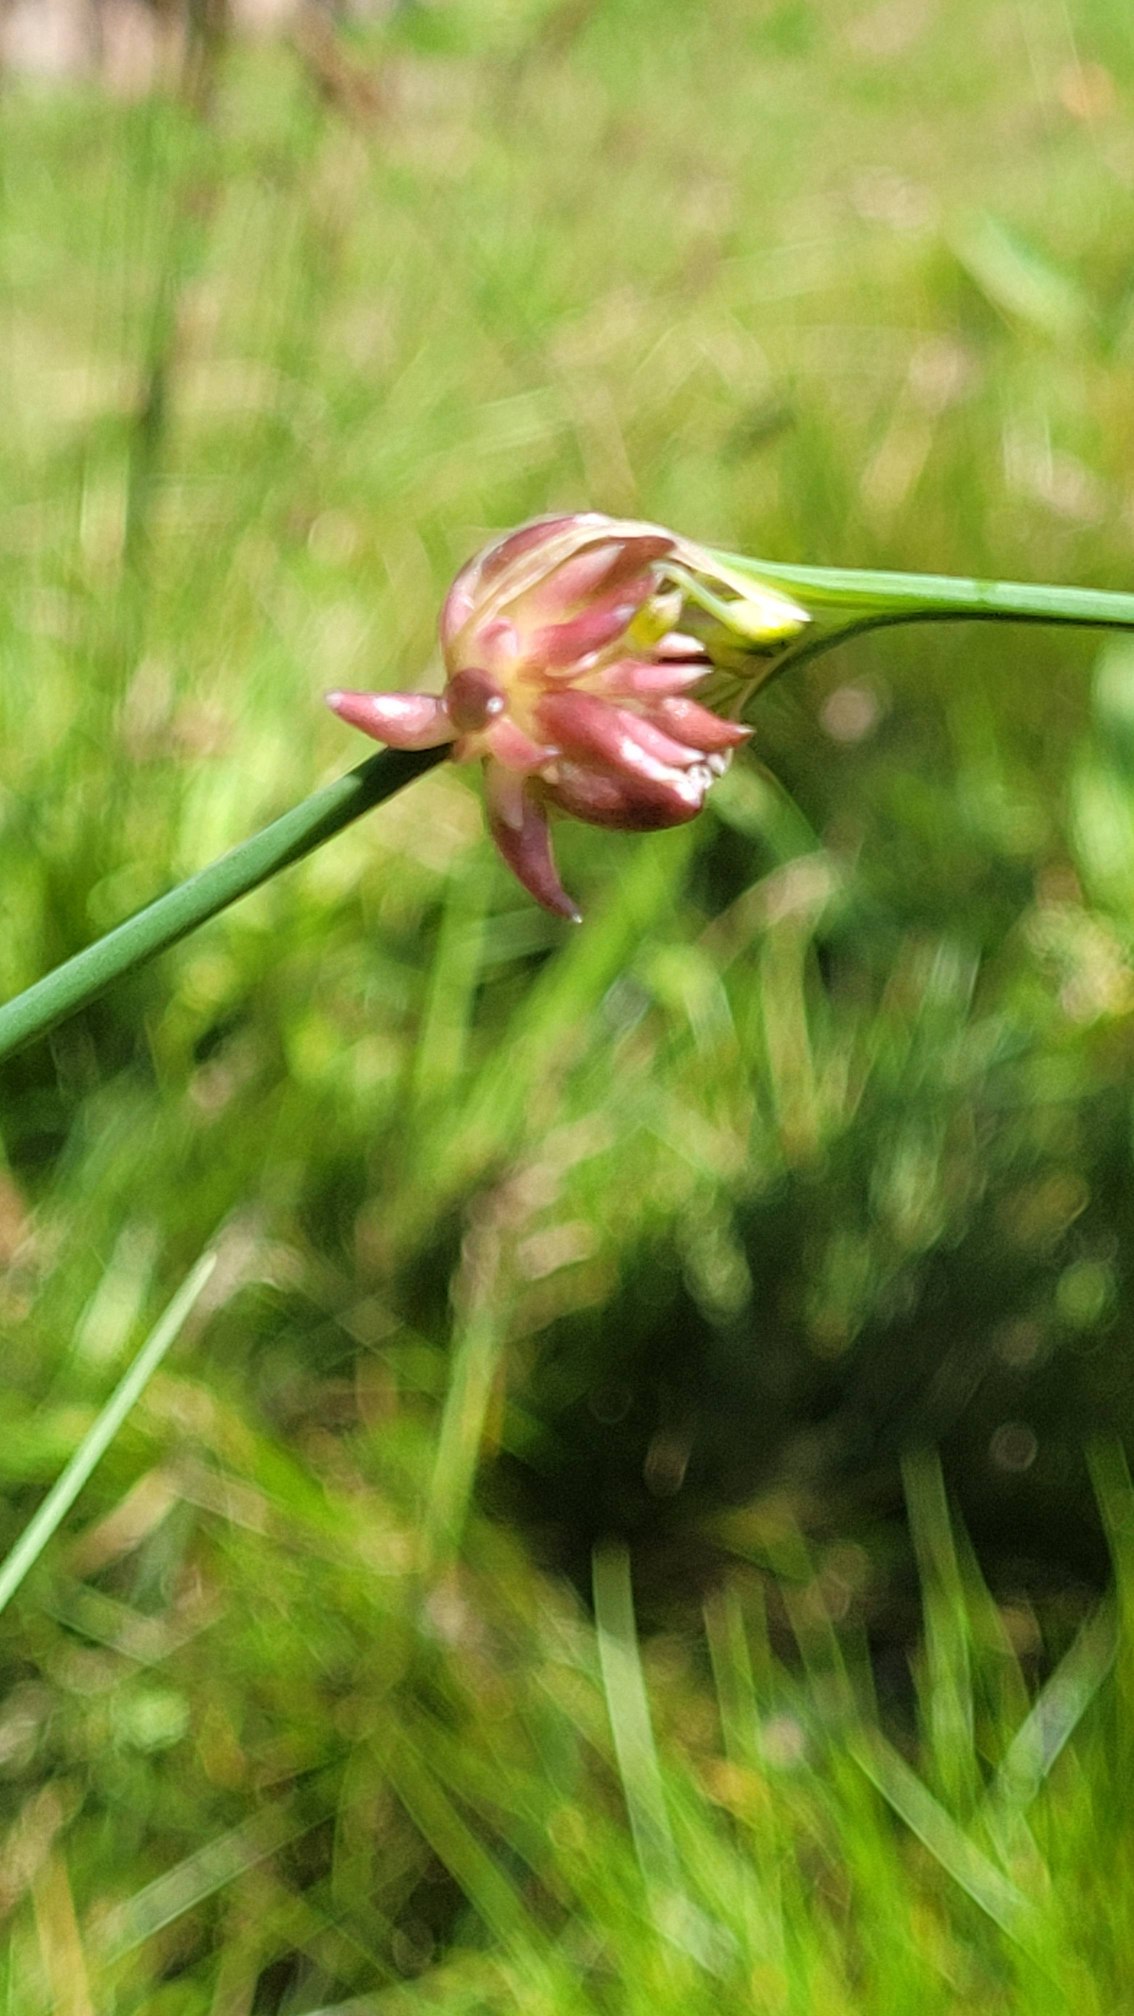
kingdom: Plantae
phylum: Tracheophyta
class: Liliopsida
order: Asparagales
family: Amaryllidaceae
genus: Allium
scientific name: Allium oleraceum
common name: Vild løg
